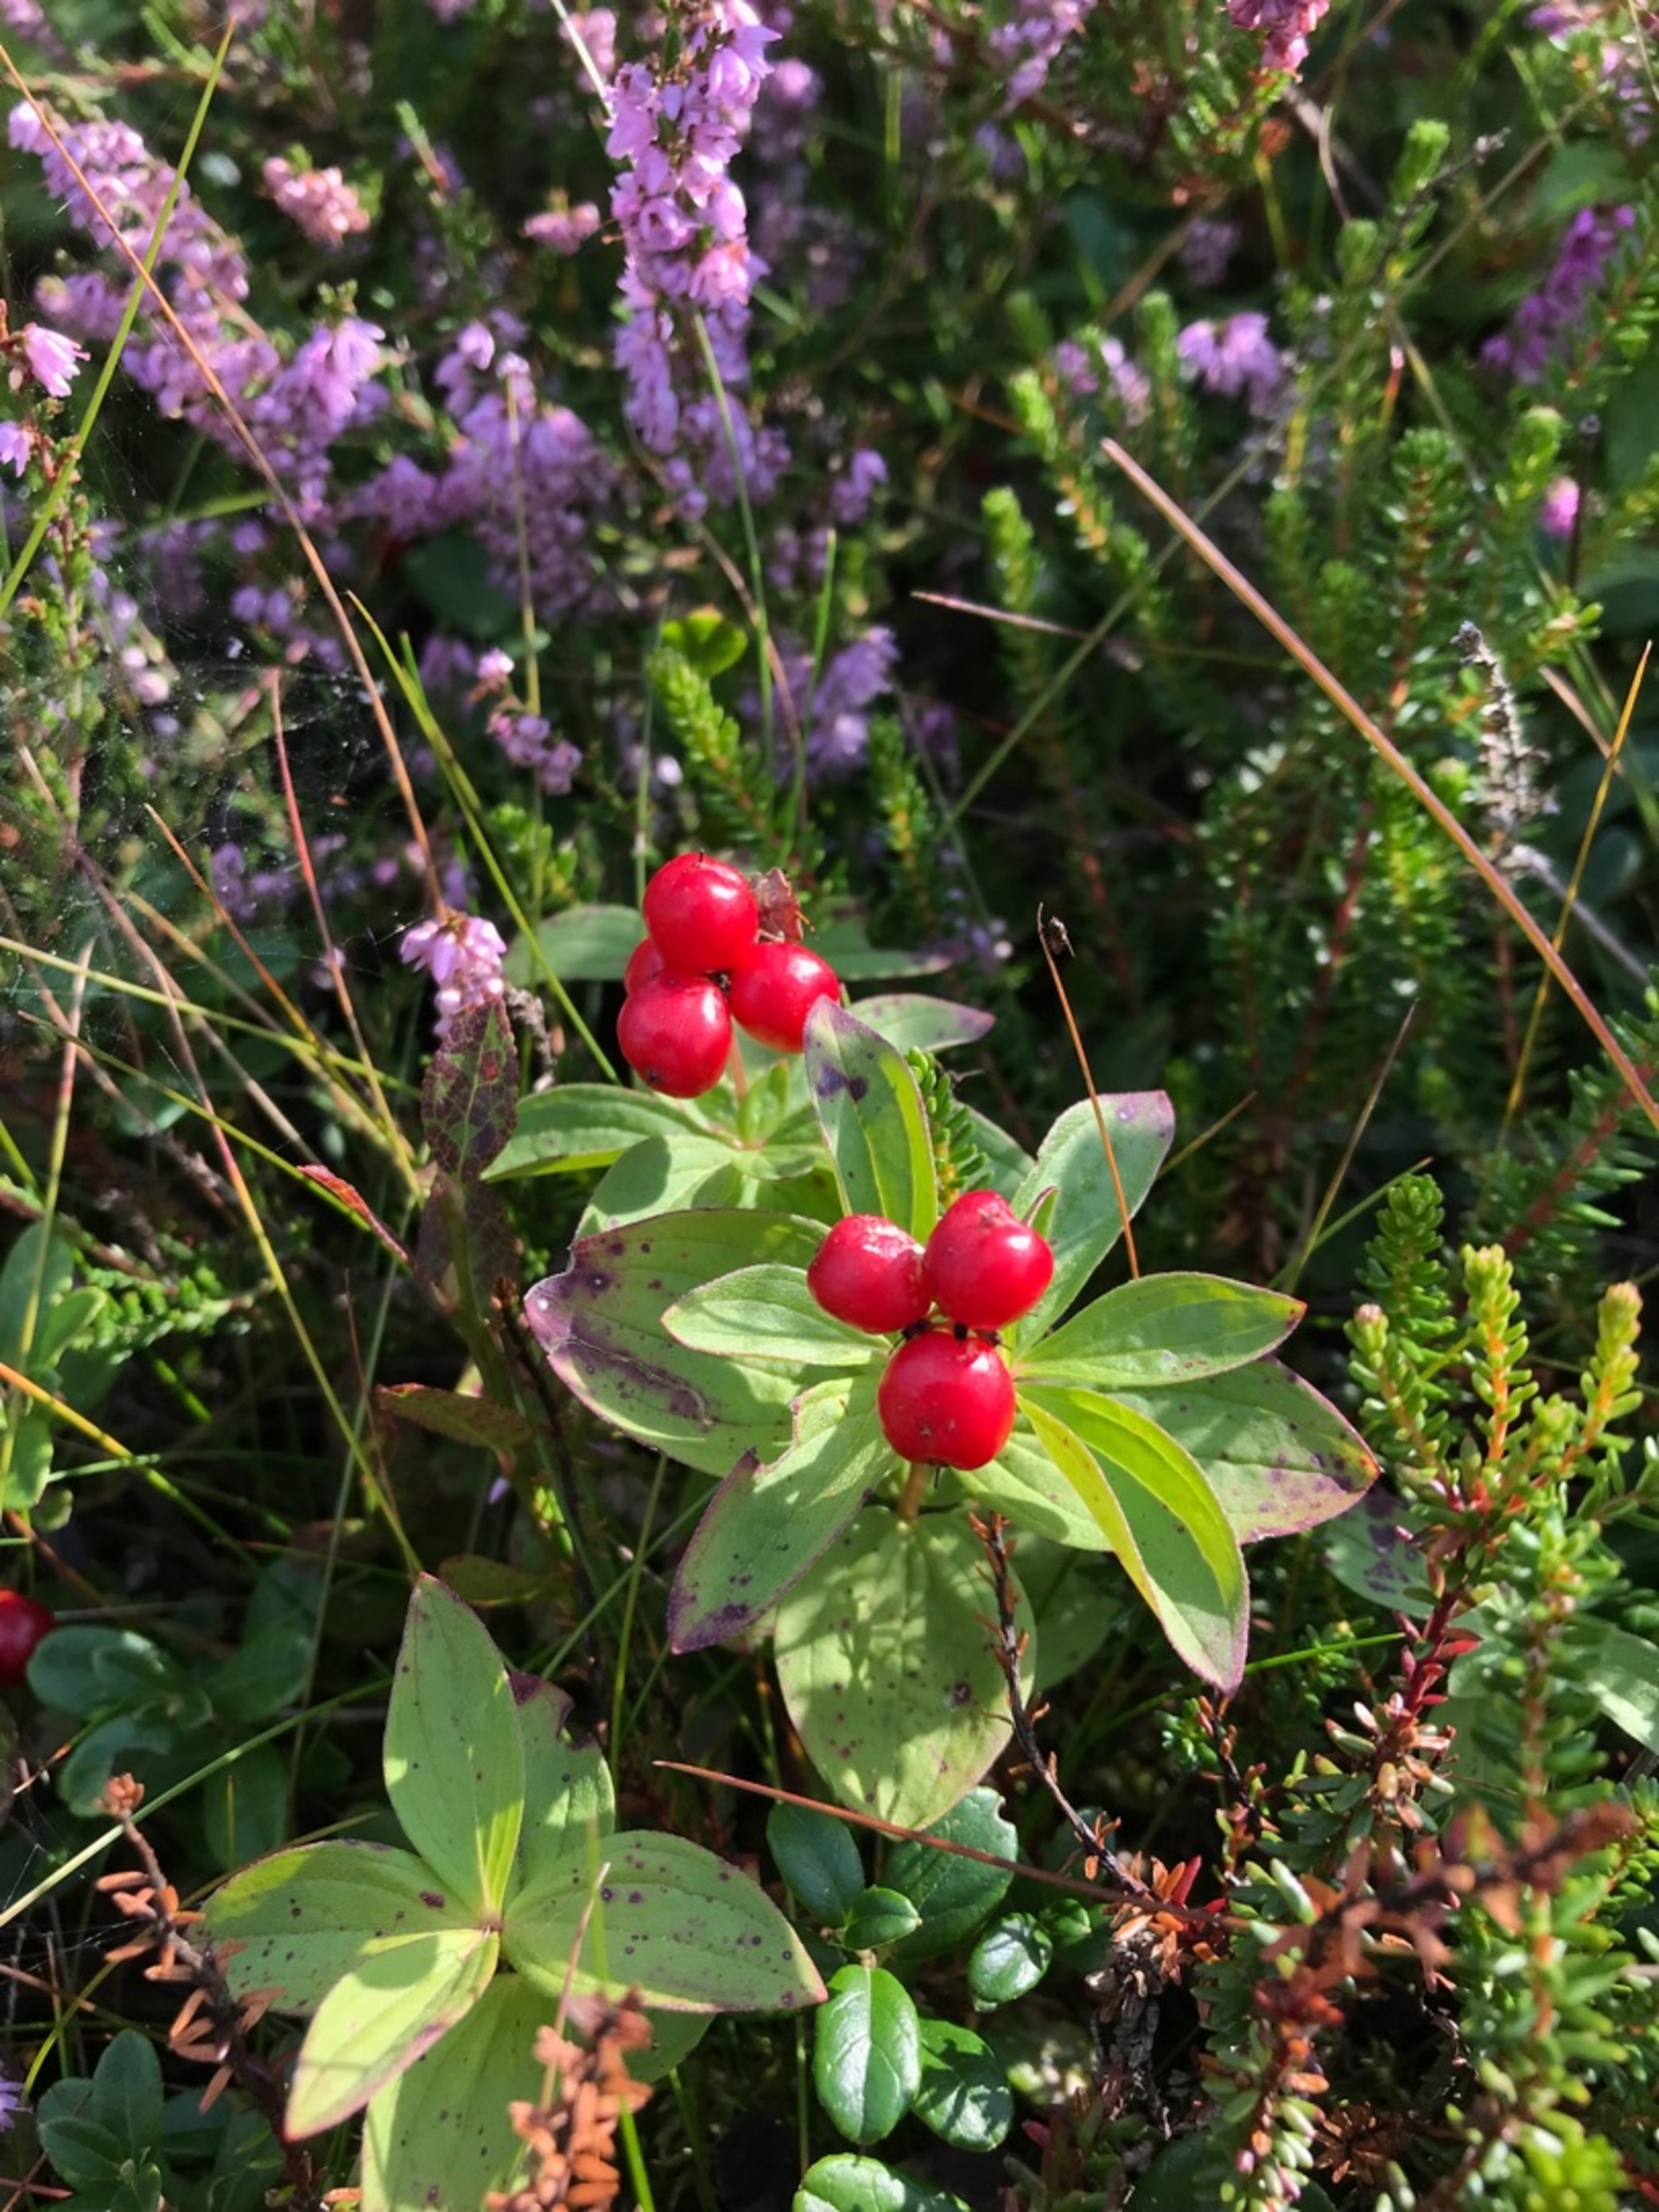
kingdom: Plantae
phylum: Tracheophyta
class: Magnoliopsida
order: Cornales
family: Cornaceae
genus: Cornus
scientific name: Cornus suecica
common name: Hønsebær
